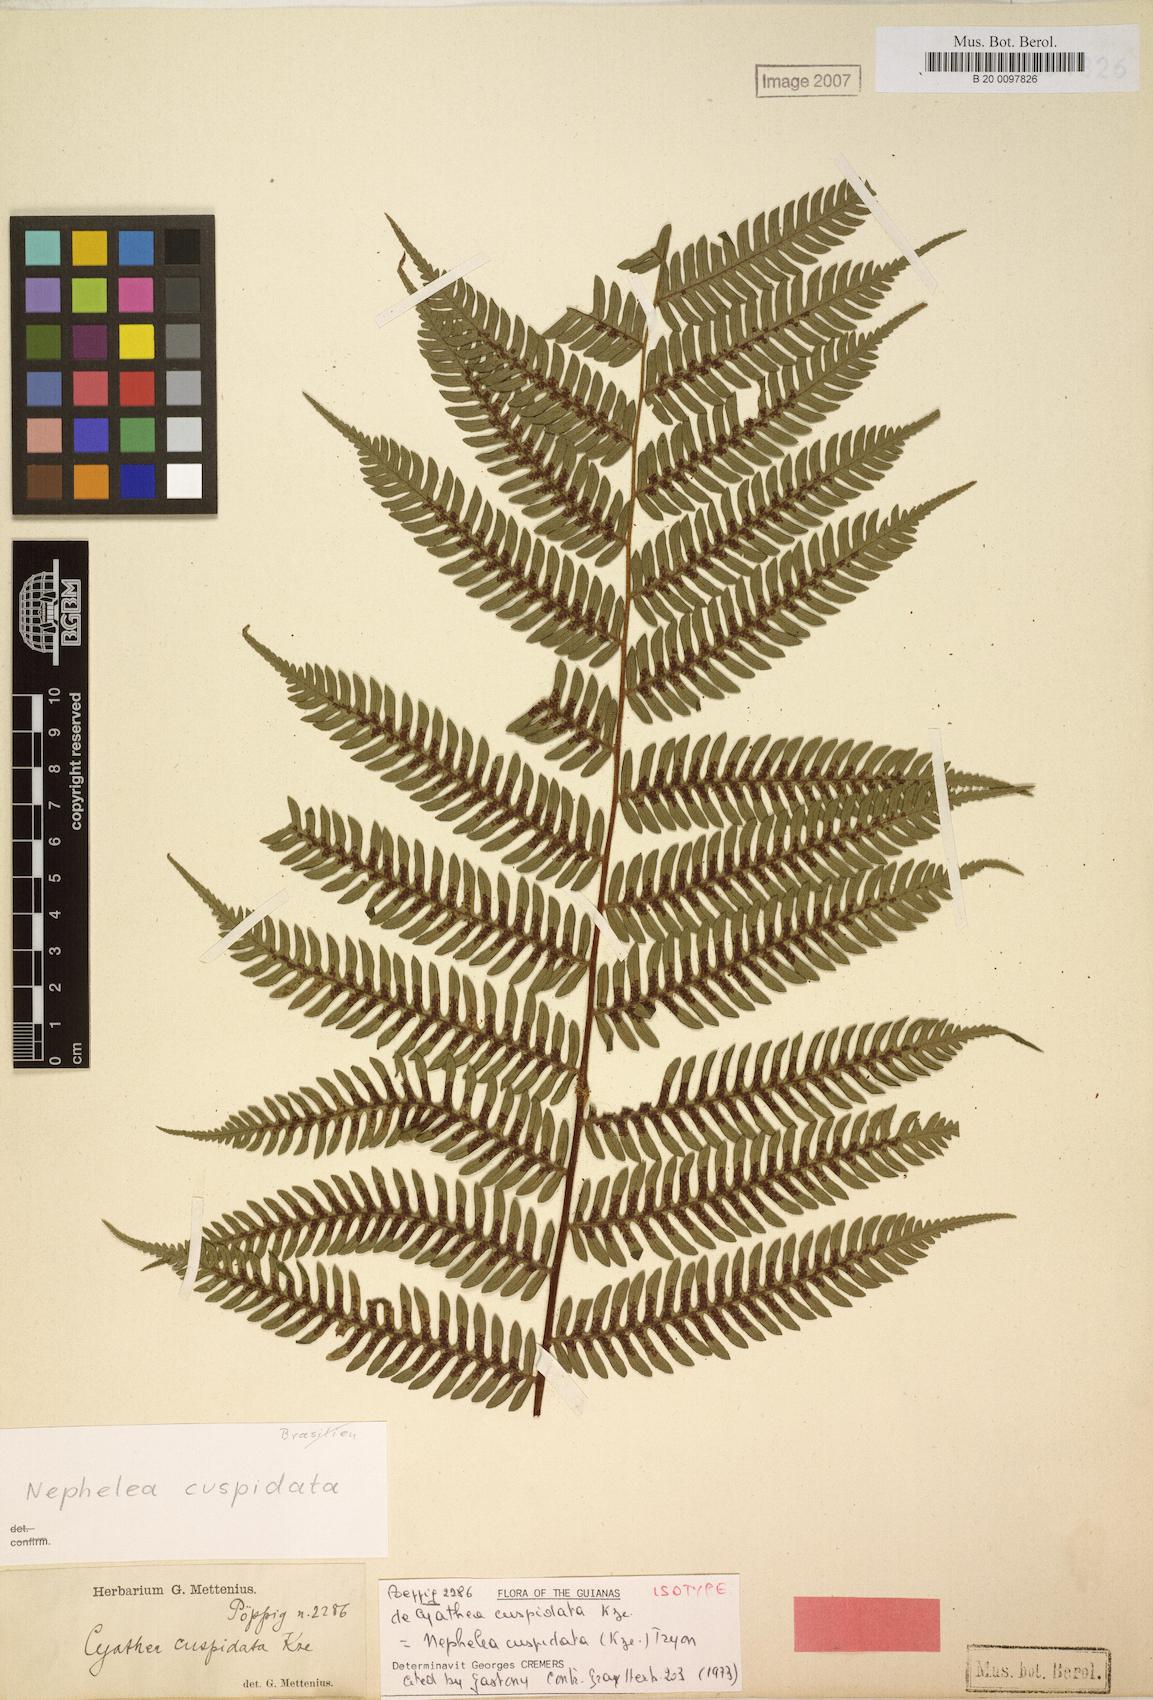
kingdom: Plantae
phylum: Tracheophyta
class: Polypodiopsida
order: Cyatheales
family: Cyatheaceae
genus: Alsophila
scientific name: Alsophila cuspidata
